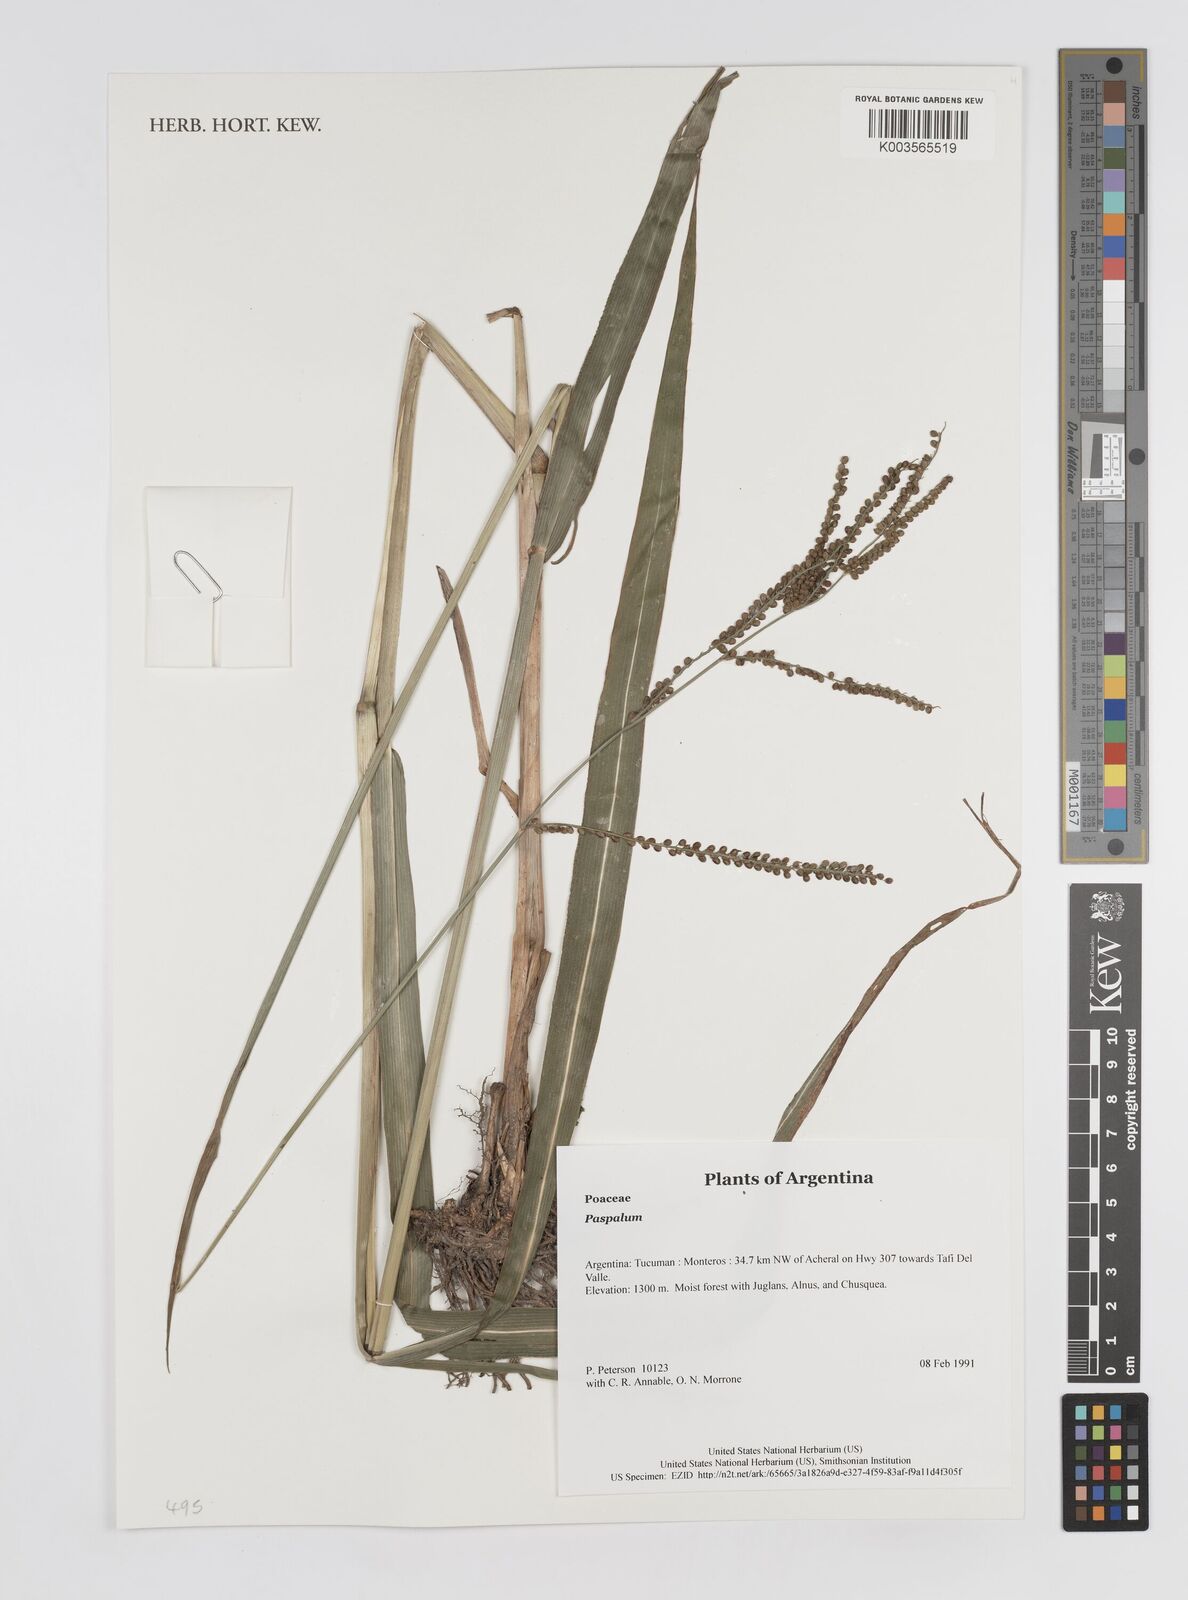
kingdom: Plantae
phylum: Tracheophyta
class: Liliopsida
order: Poales
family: Poaceae
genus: Paspalum
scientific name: Paspalum
